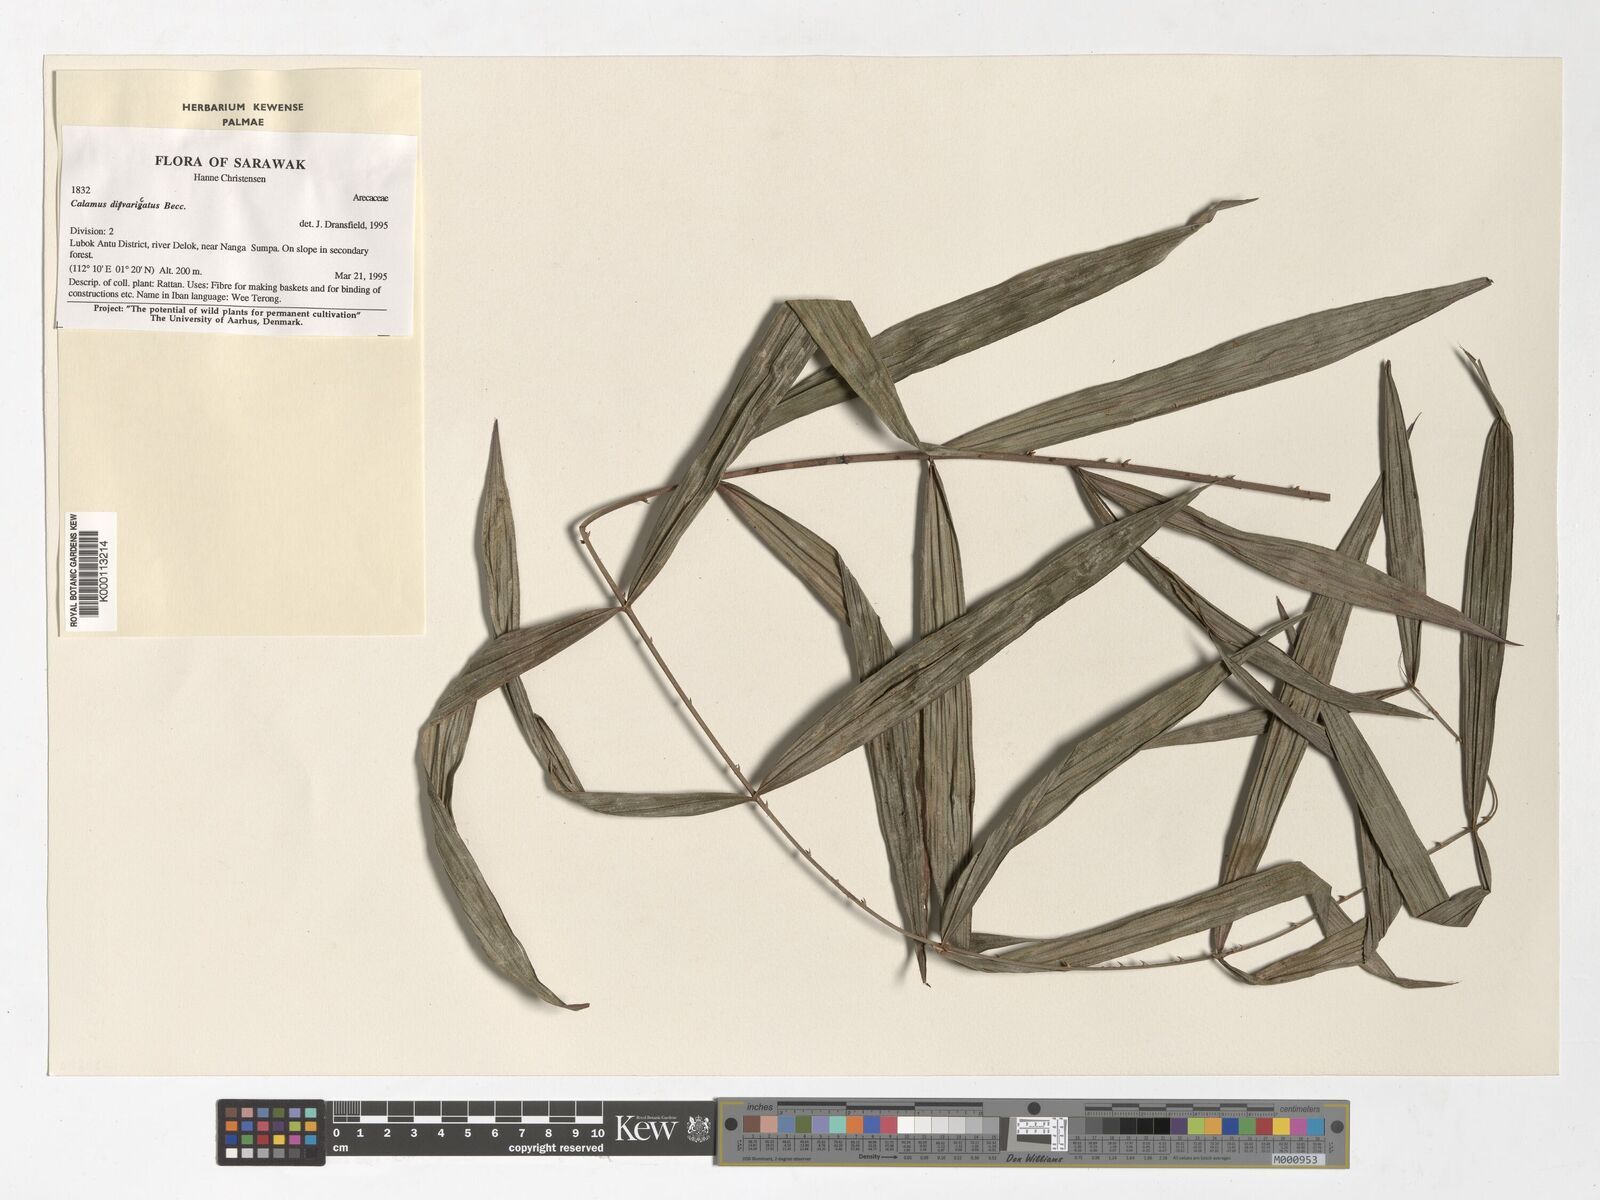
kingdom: Plantae
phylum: Tracheophyta
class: Liliopsida
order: Arecales
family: Arecaceae
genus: Calamus
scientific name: Calamus divaricatus
